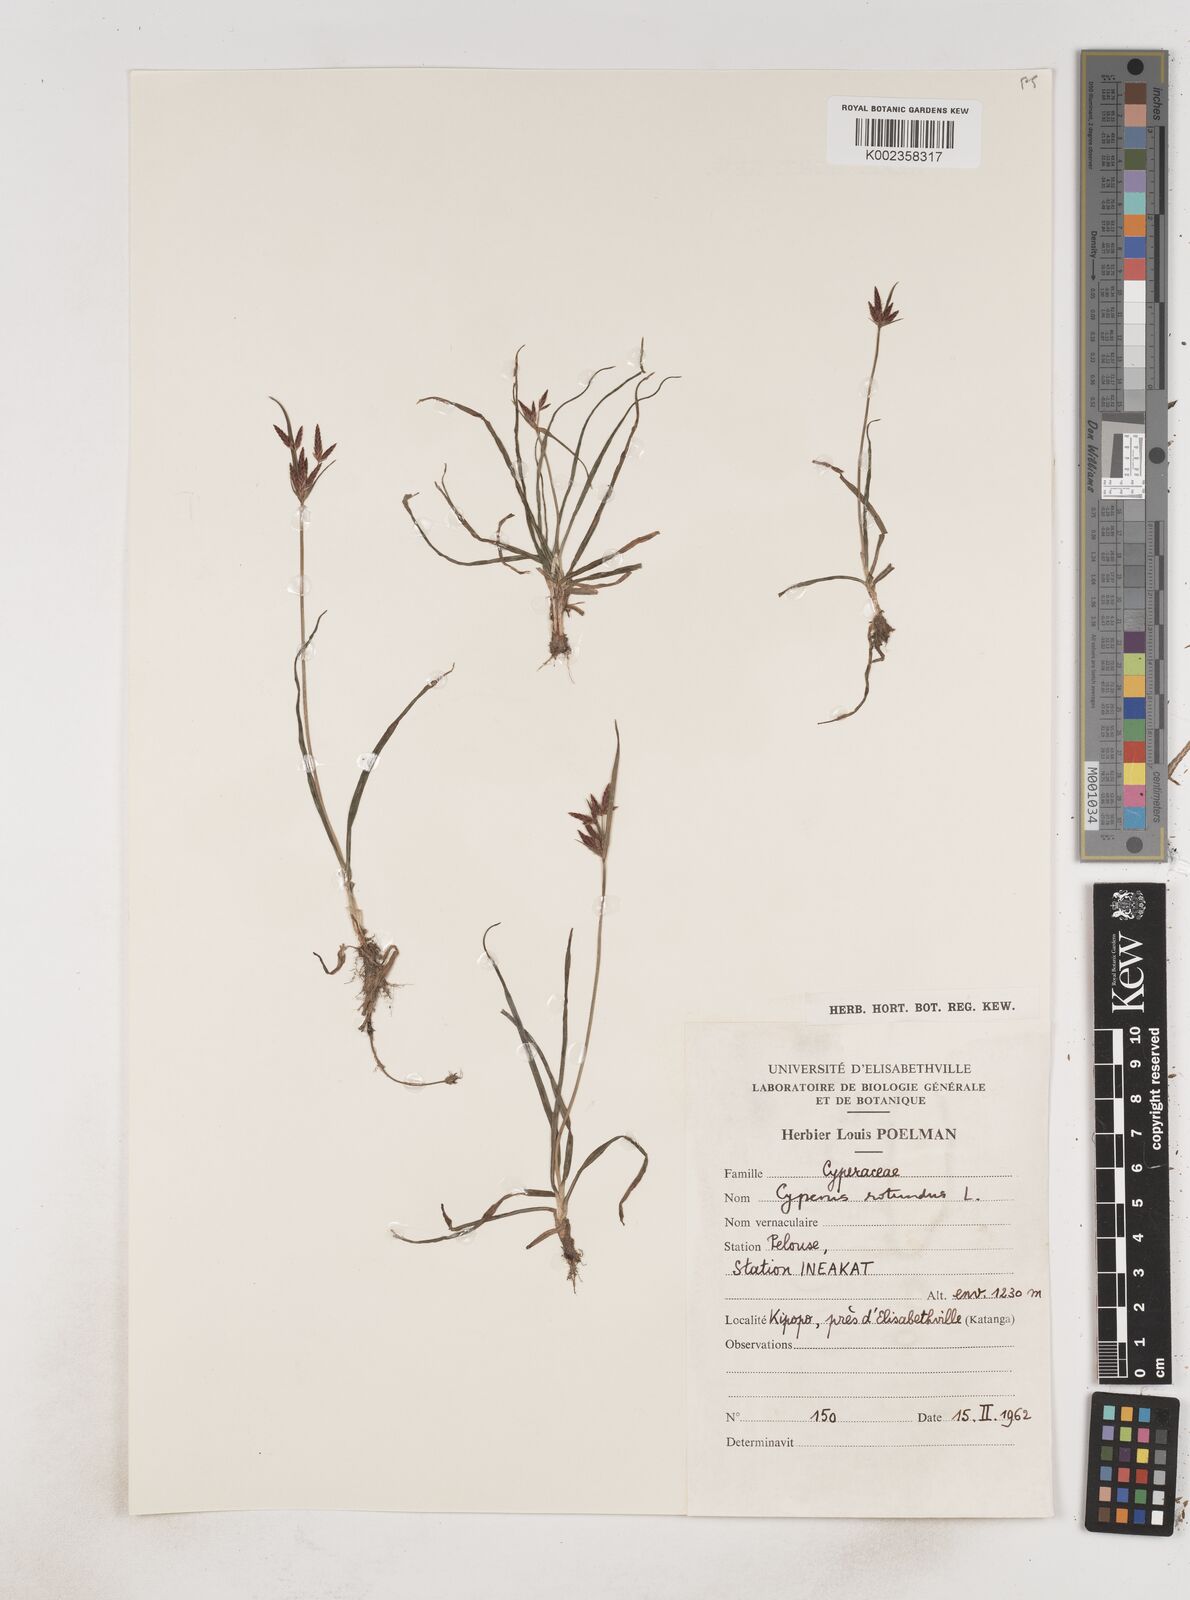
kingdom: Plantae
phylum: Tracheophyta
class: Liliopsida
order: Poales
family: Cyperaceae
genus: Cyperus
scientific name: Cyperus rotundus
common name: Nutgrass
